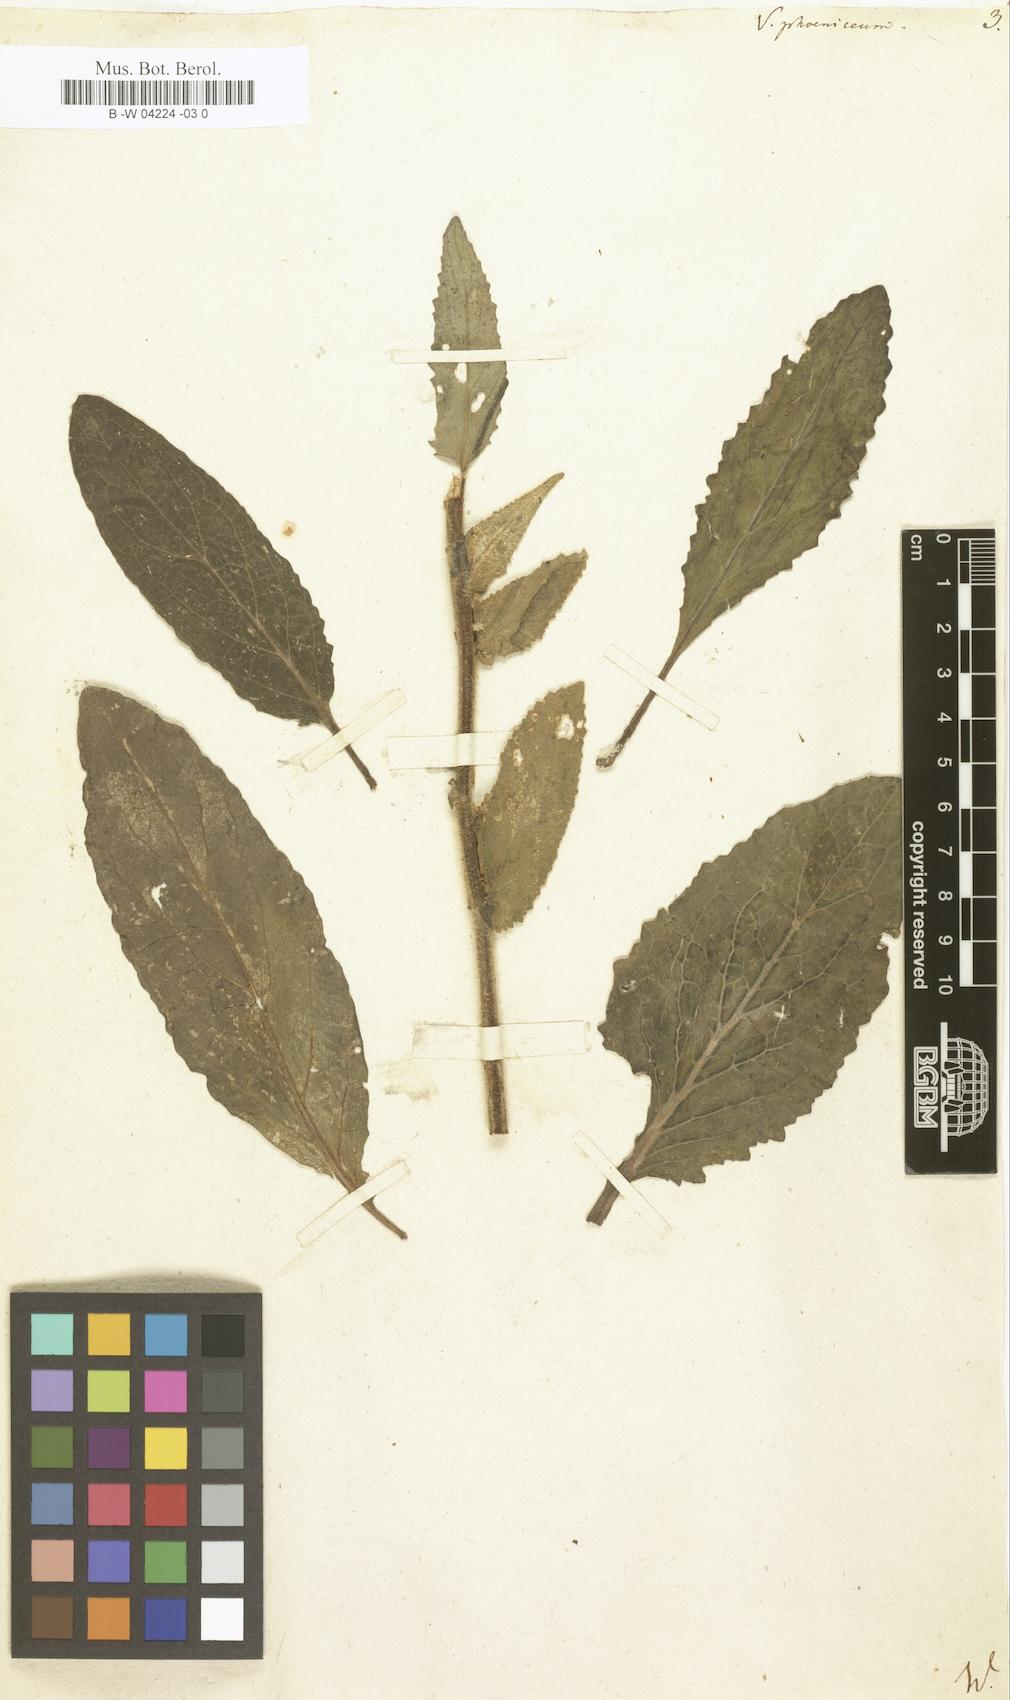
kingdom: Plantae
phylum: Tracheophyta
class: Magnoliopsida
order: Lamiales
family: Scrophulariaceae
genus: Verbascum
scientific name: Verbascum phoeniceum
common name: Purple mullein
